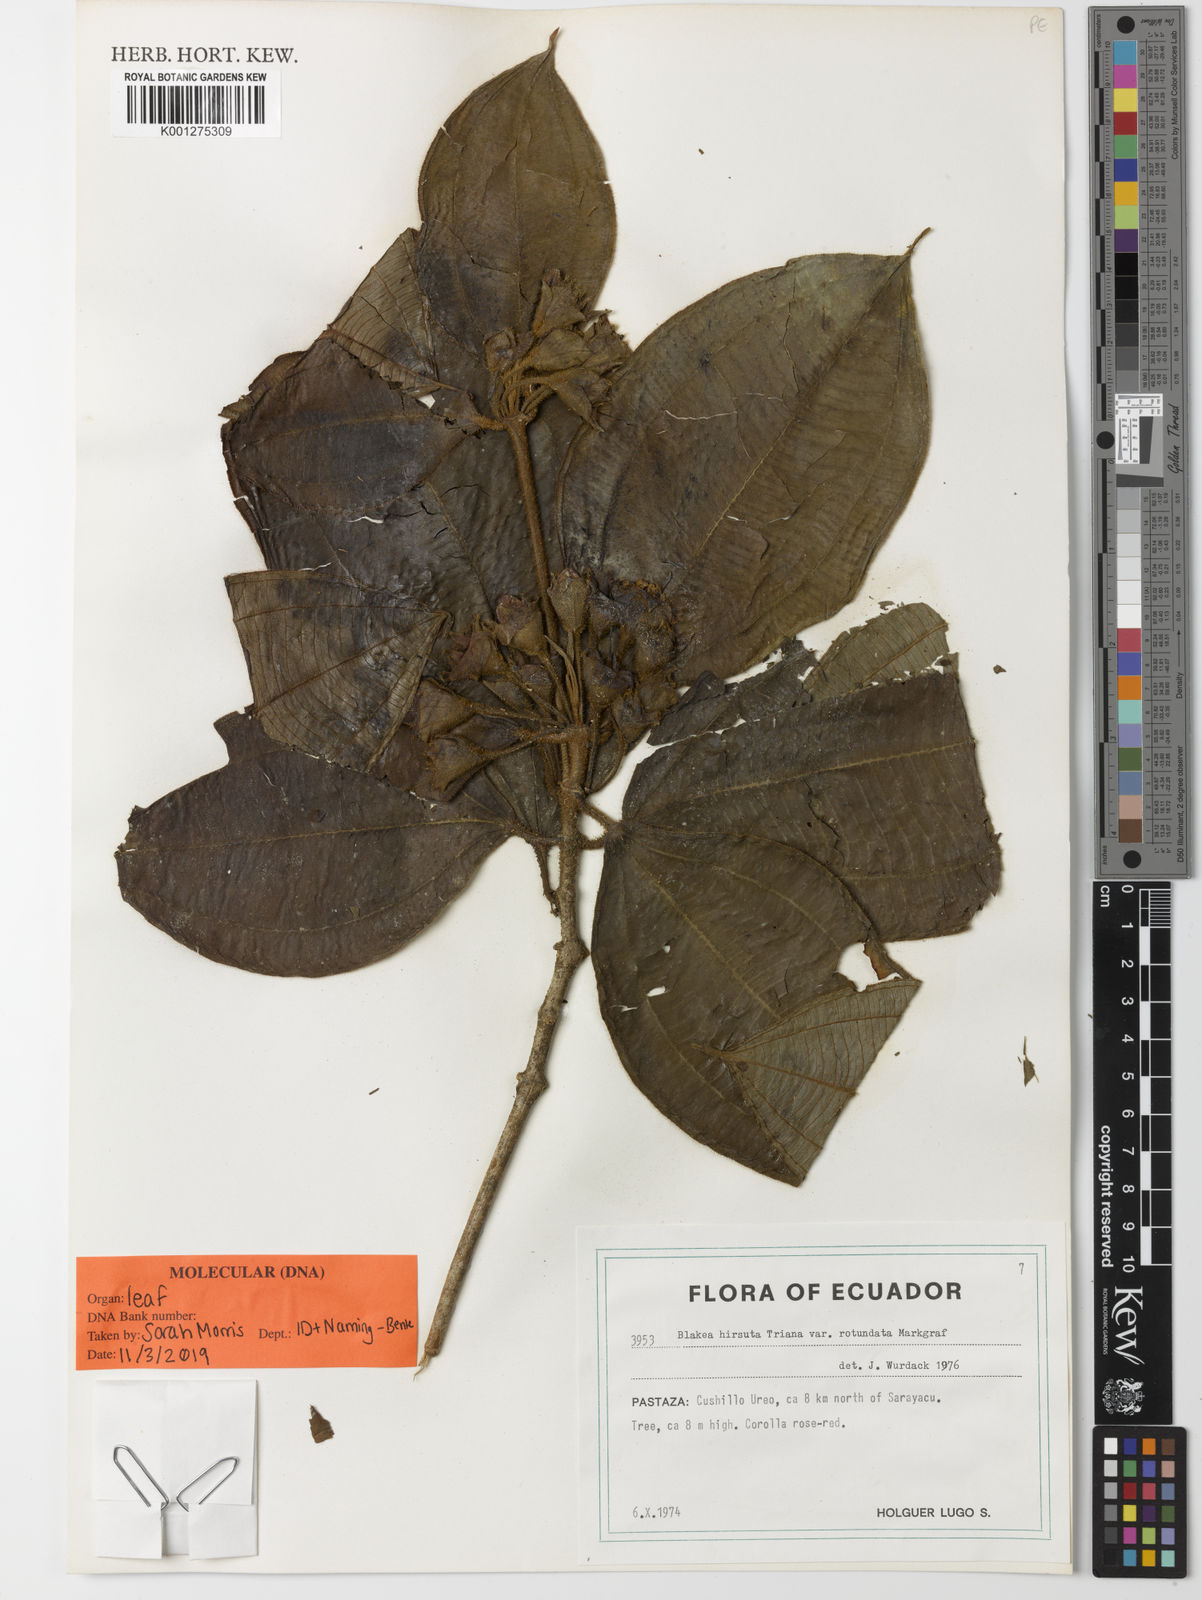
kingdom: Plantae
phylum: Tracheophyta
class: Magnoliopsida
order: Myrtales
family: Melastomataceae
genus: Blakea
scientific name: Blakea hirsuta
